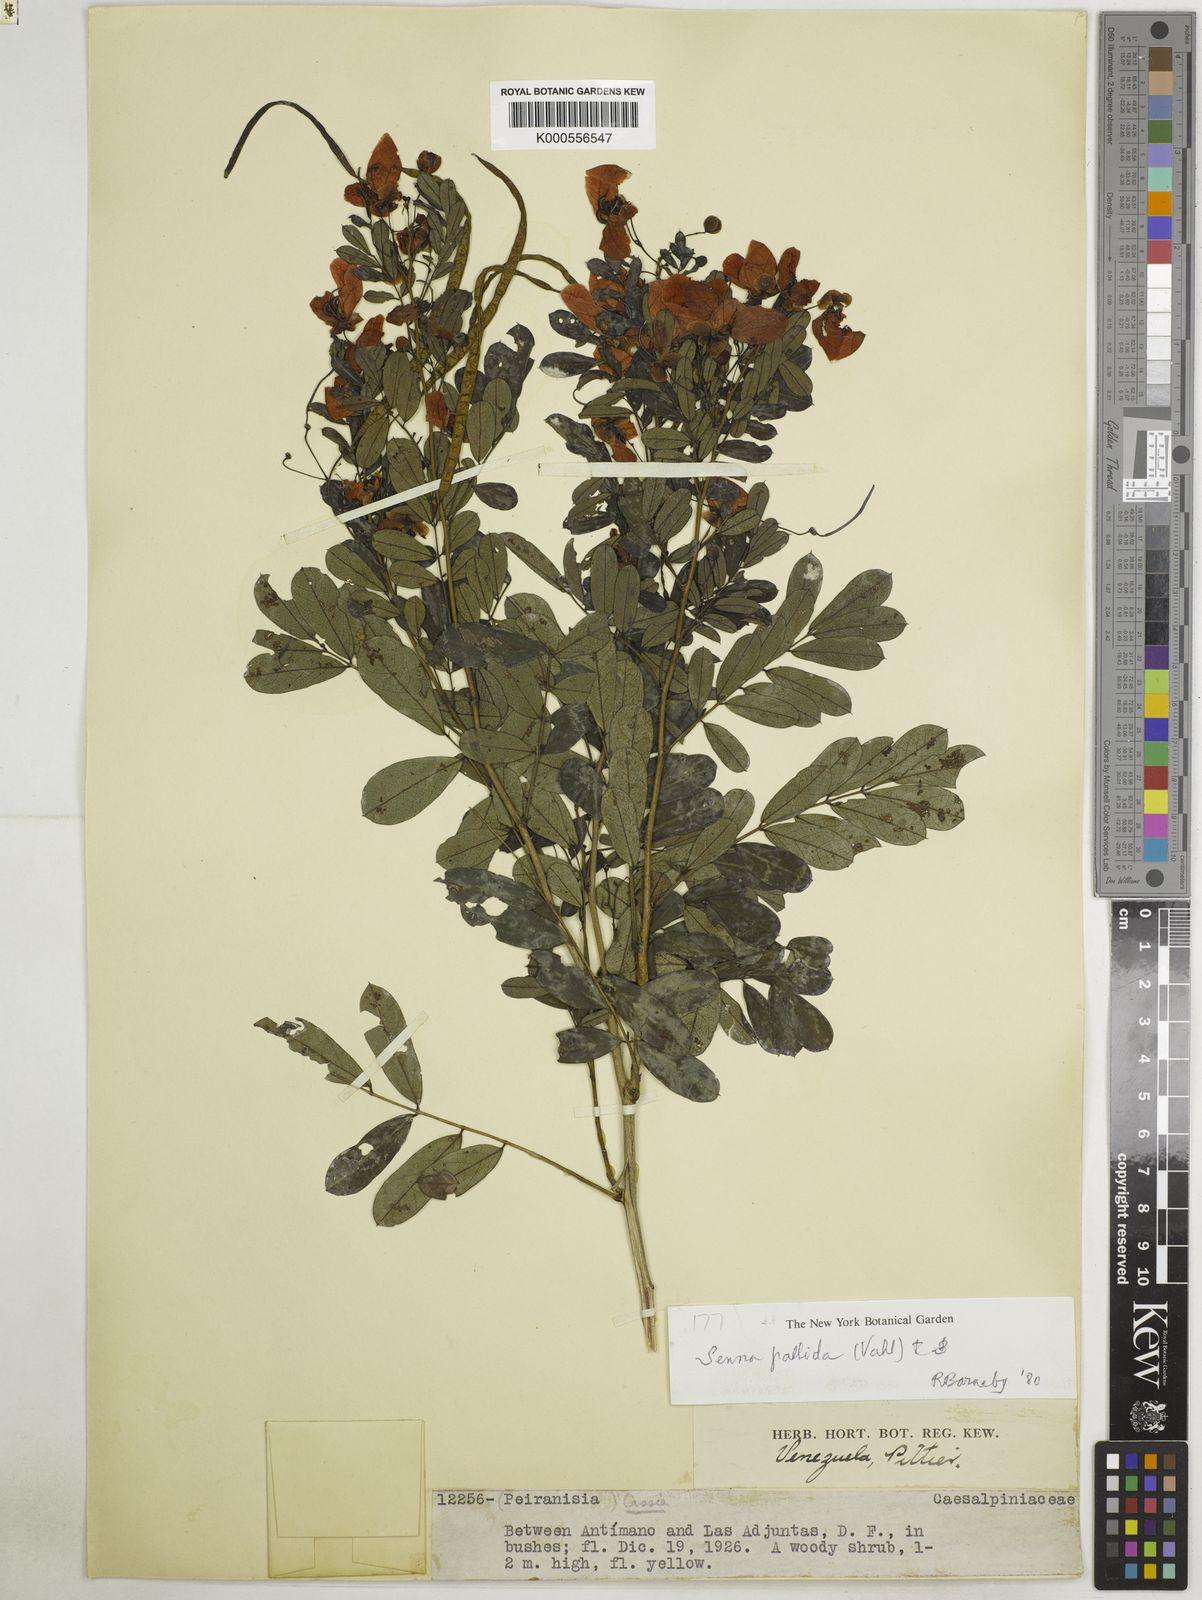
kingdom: Plantae
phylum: Tracheophyta
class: Magnoliopsida
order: Fabales
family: Fabaceae
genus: Senna
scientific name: Senna pallida
